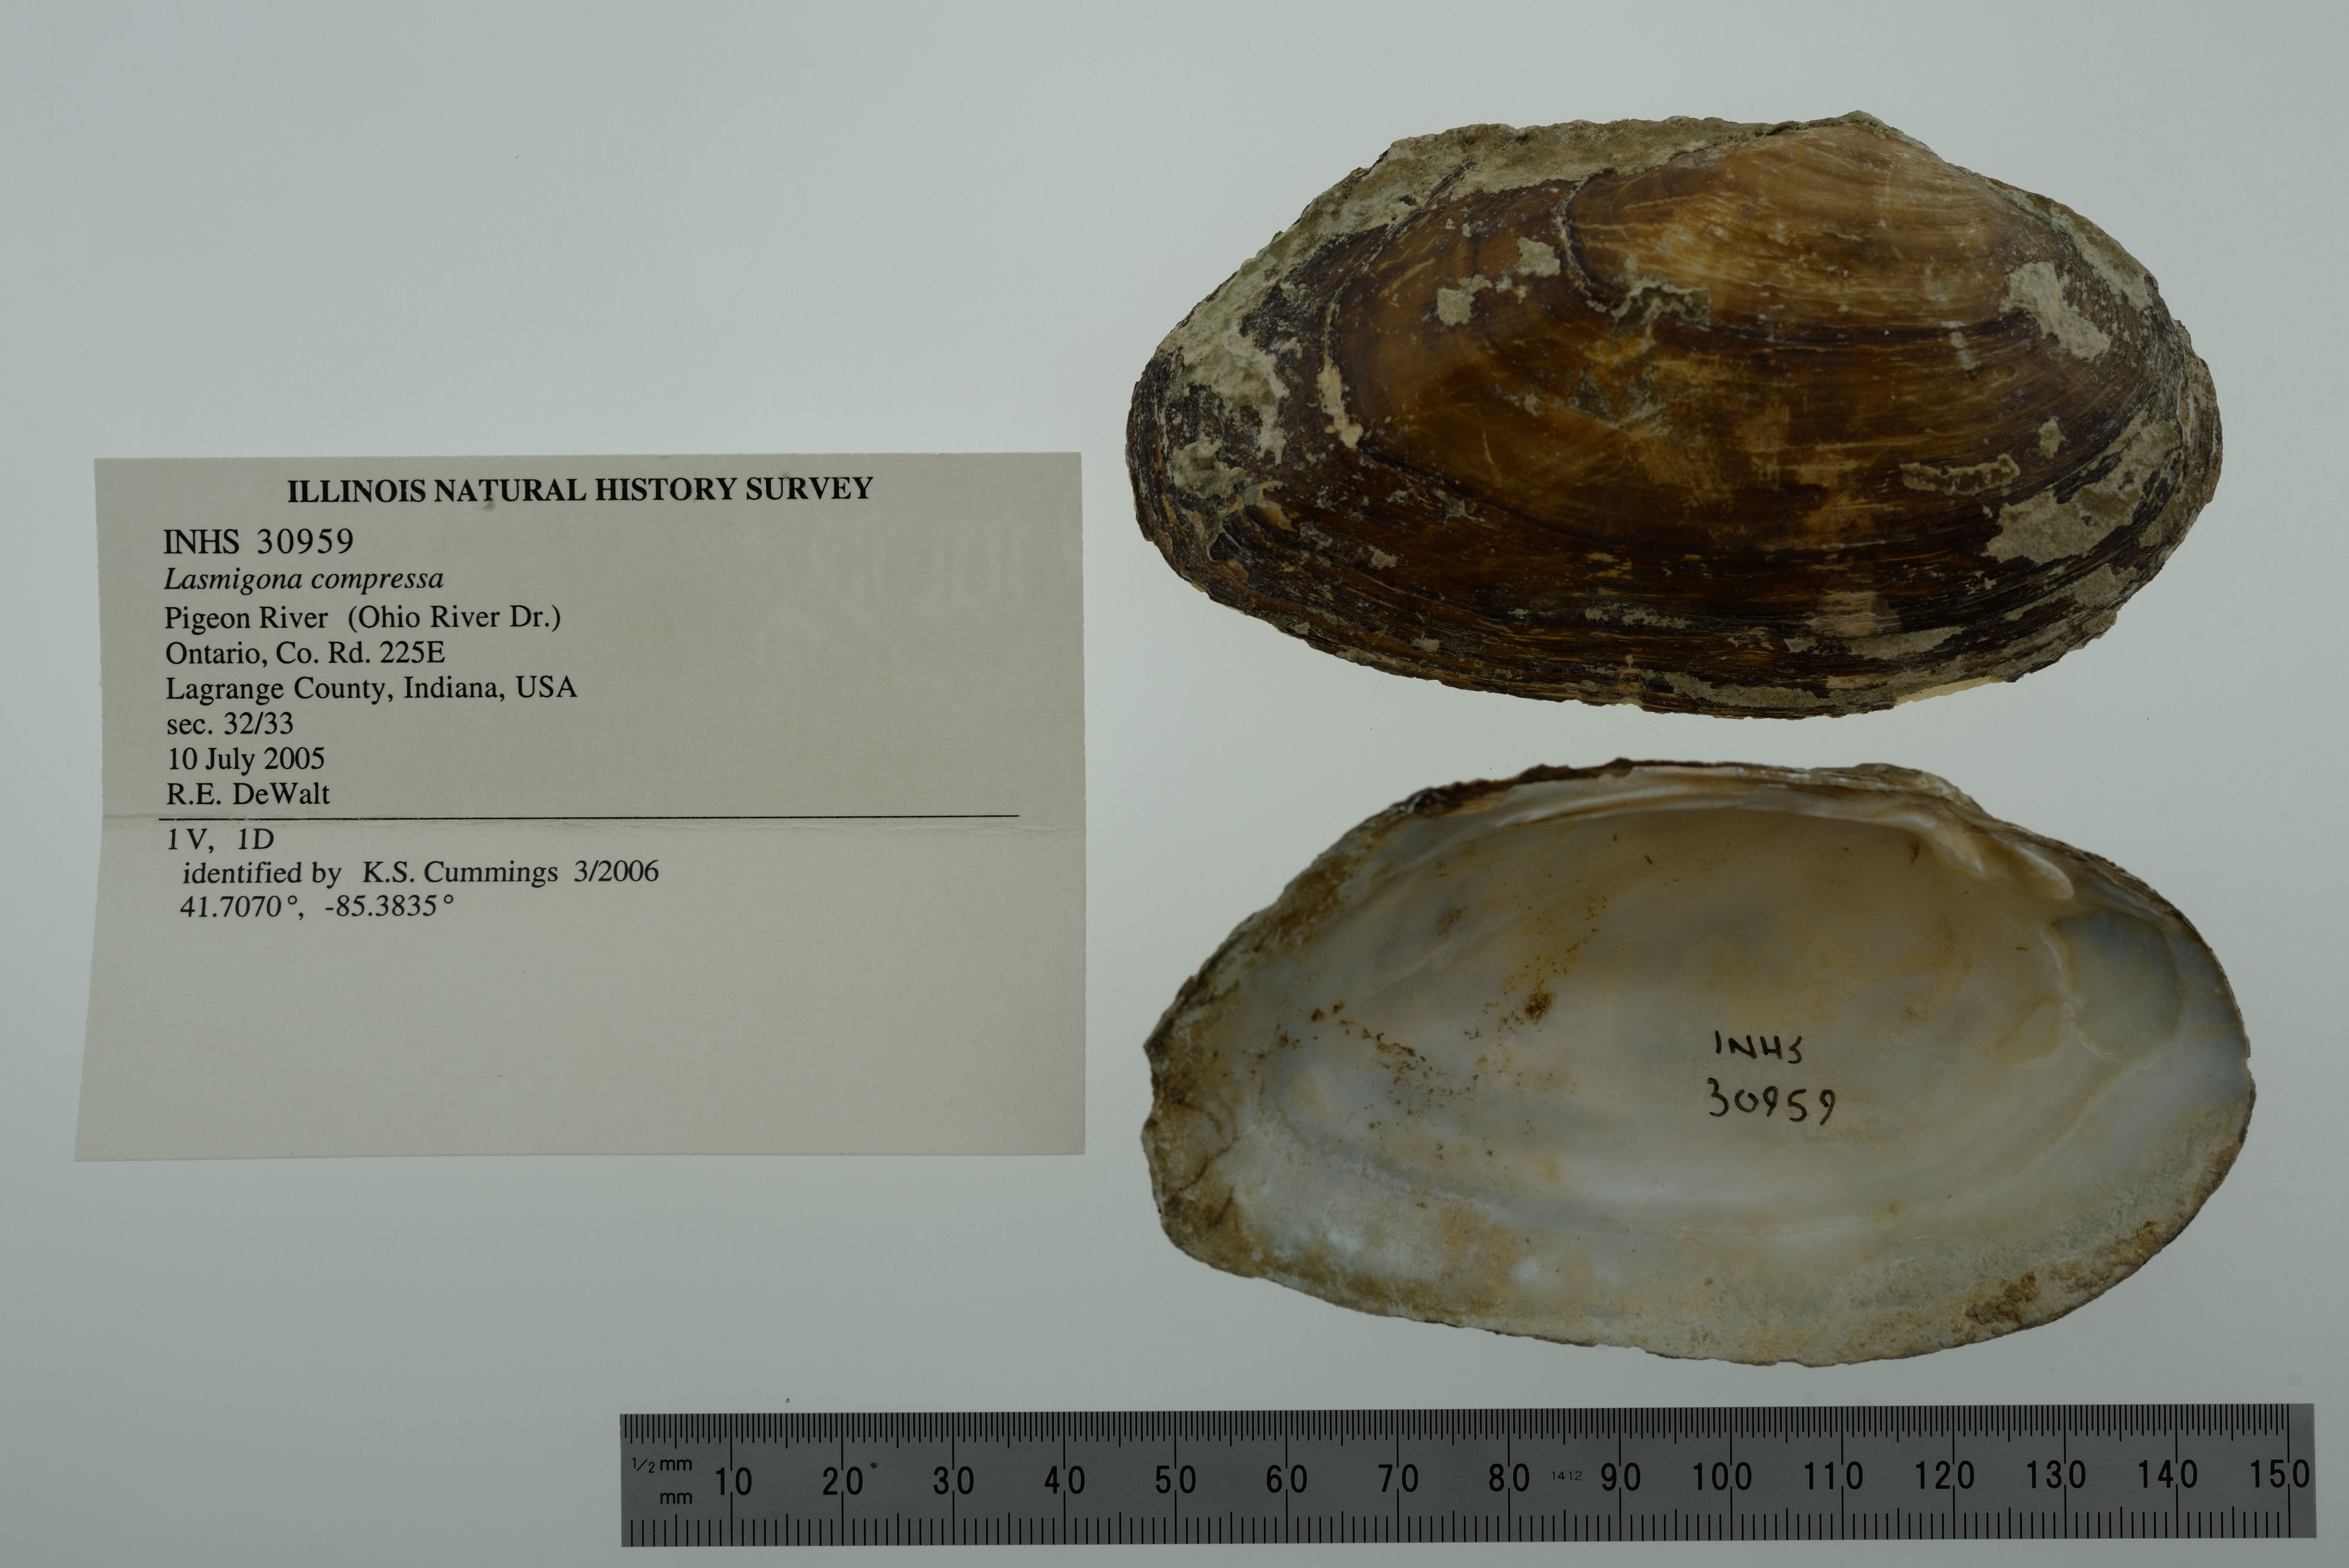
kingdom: Animalia
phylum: Mollusca
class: Bivalvia
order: Unionida
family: Unionidae
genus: Lasmigona
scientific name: Lasmigona compressa
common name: Creek heelsplitter
